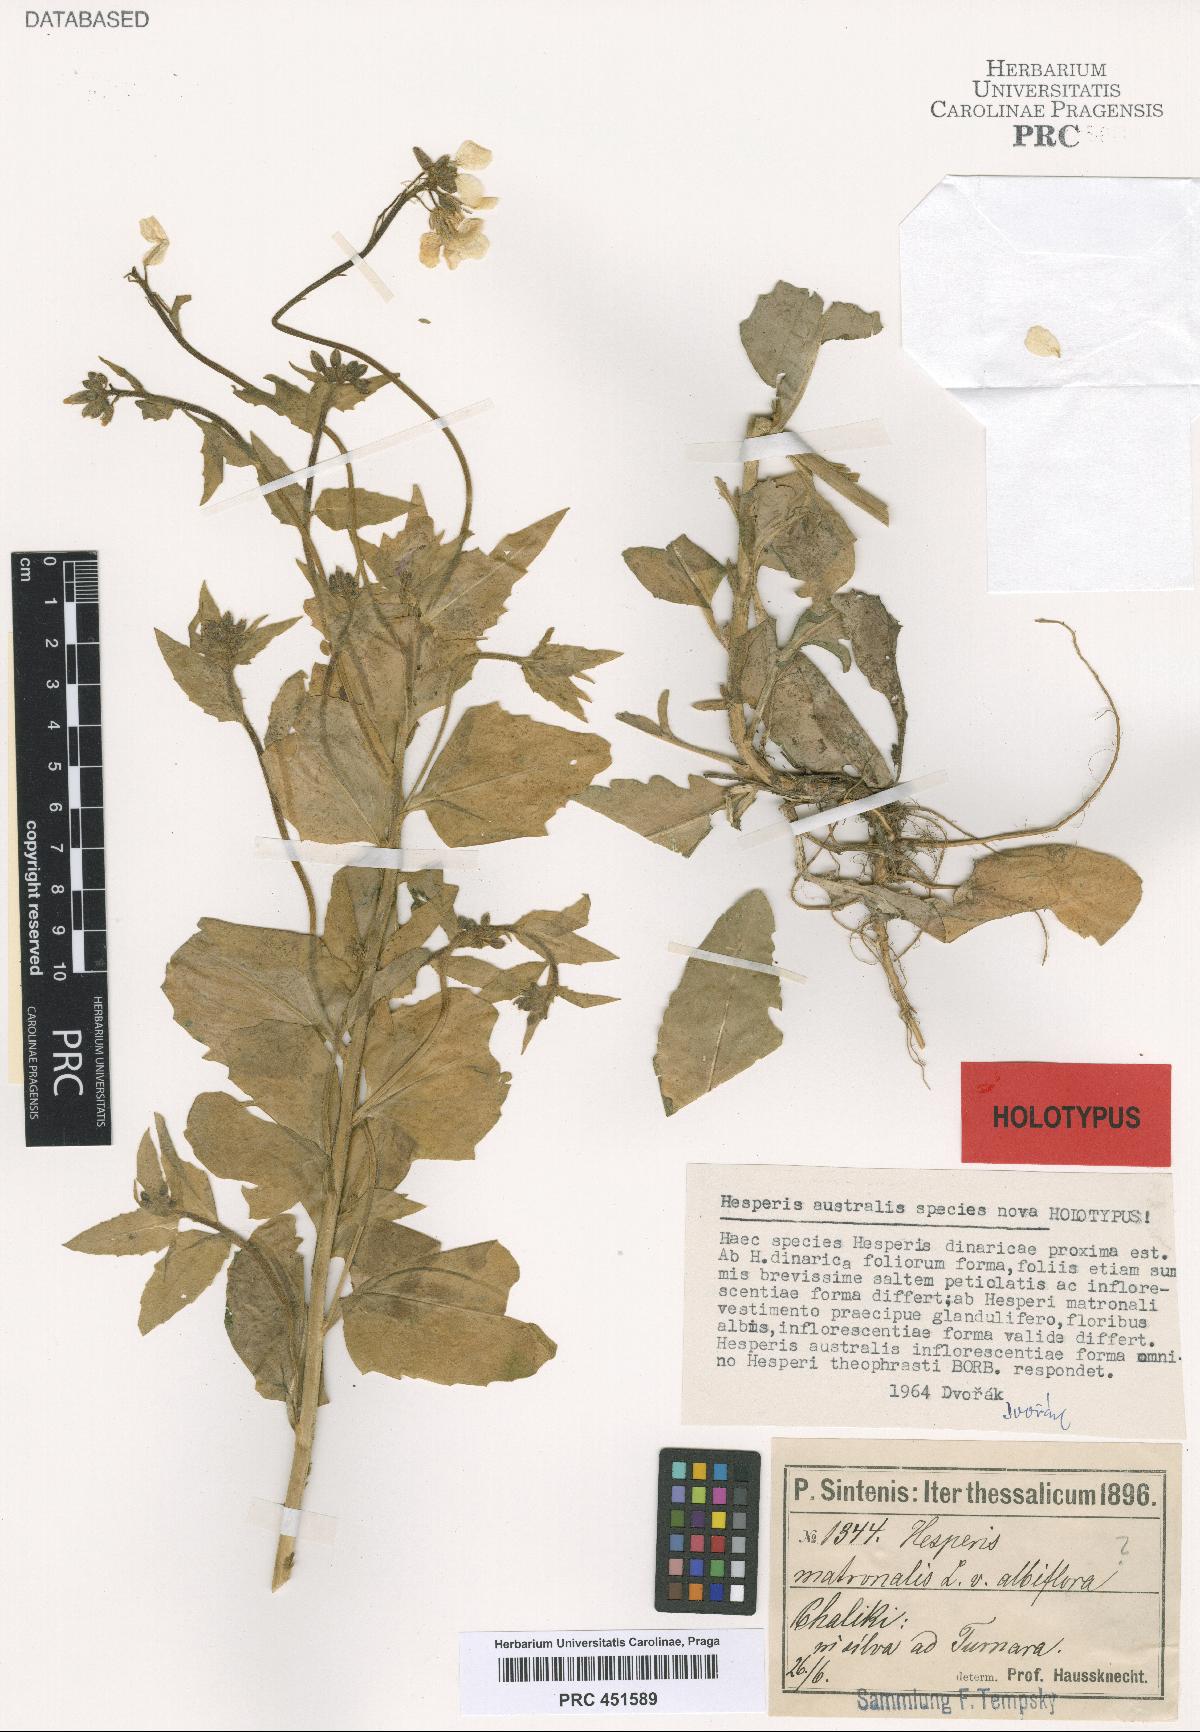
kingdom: Plantae
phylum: Tracheophyta
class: Magnoliopsida
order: Brassicales
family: Brassicaceae
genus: Hesperis
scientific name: Hesperis dinarica
